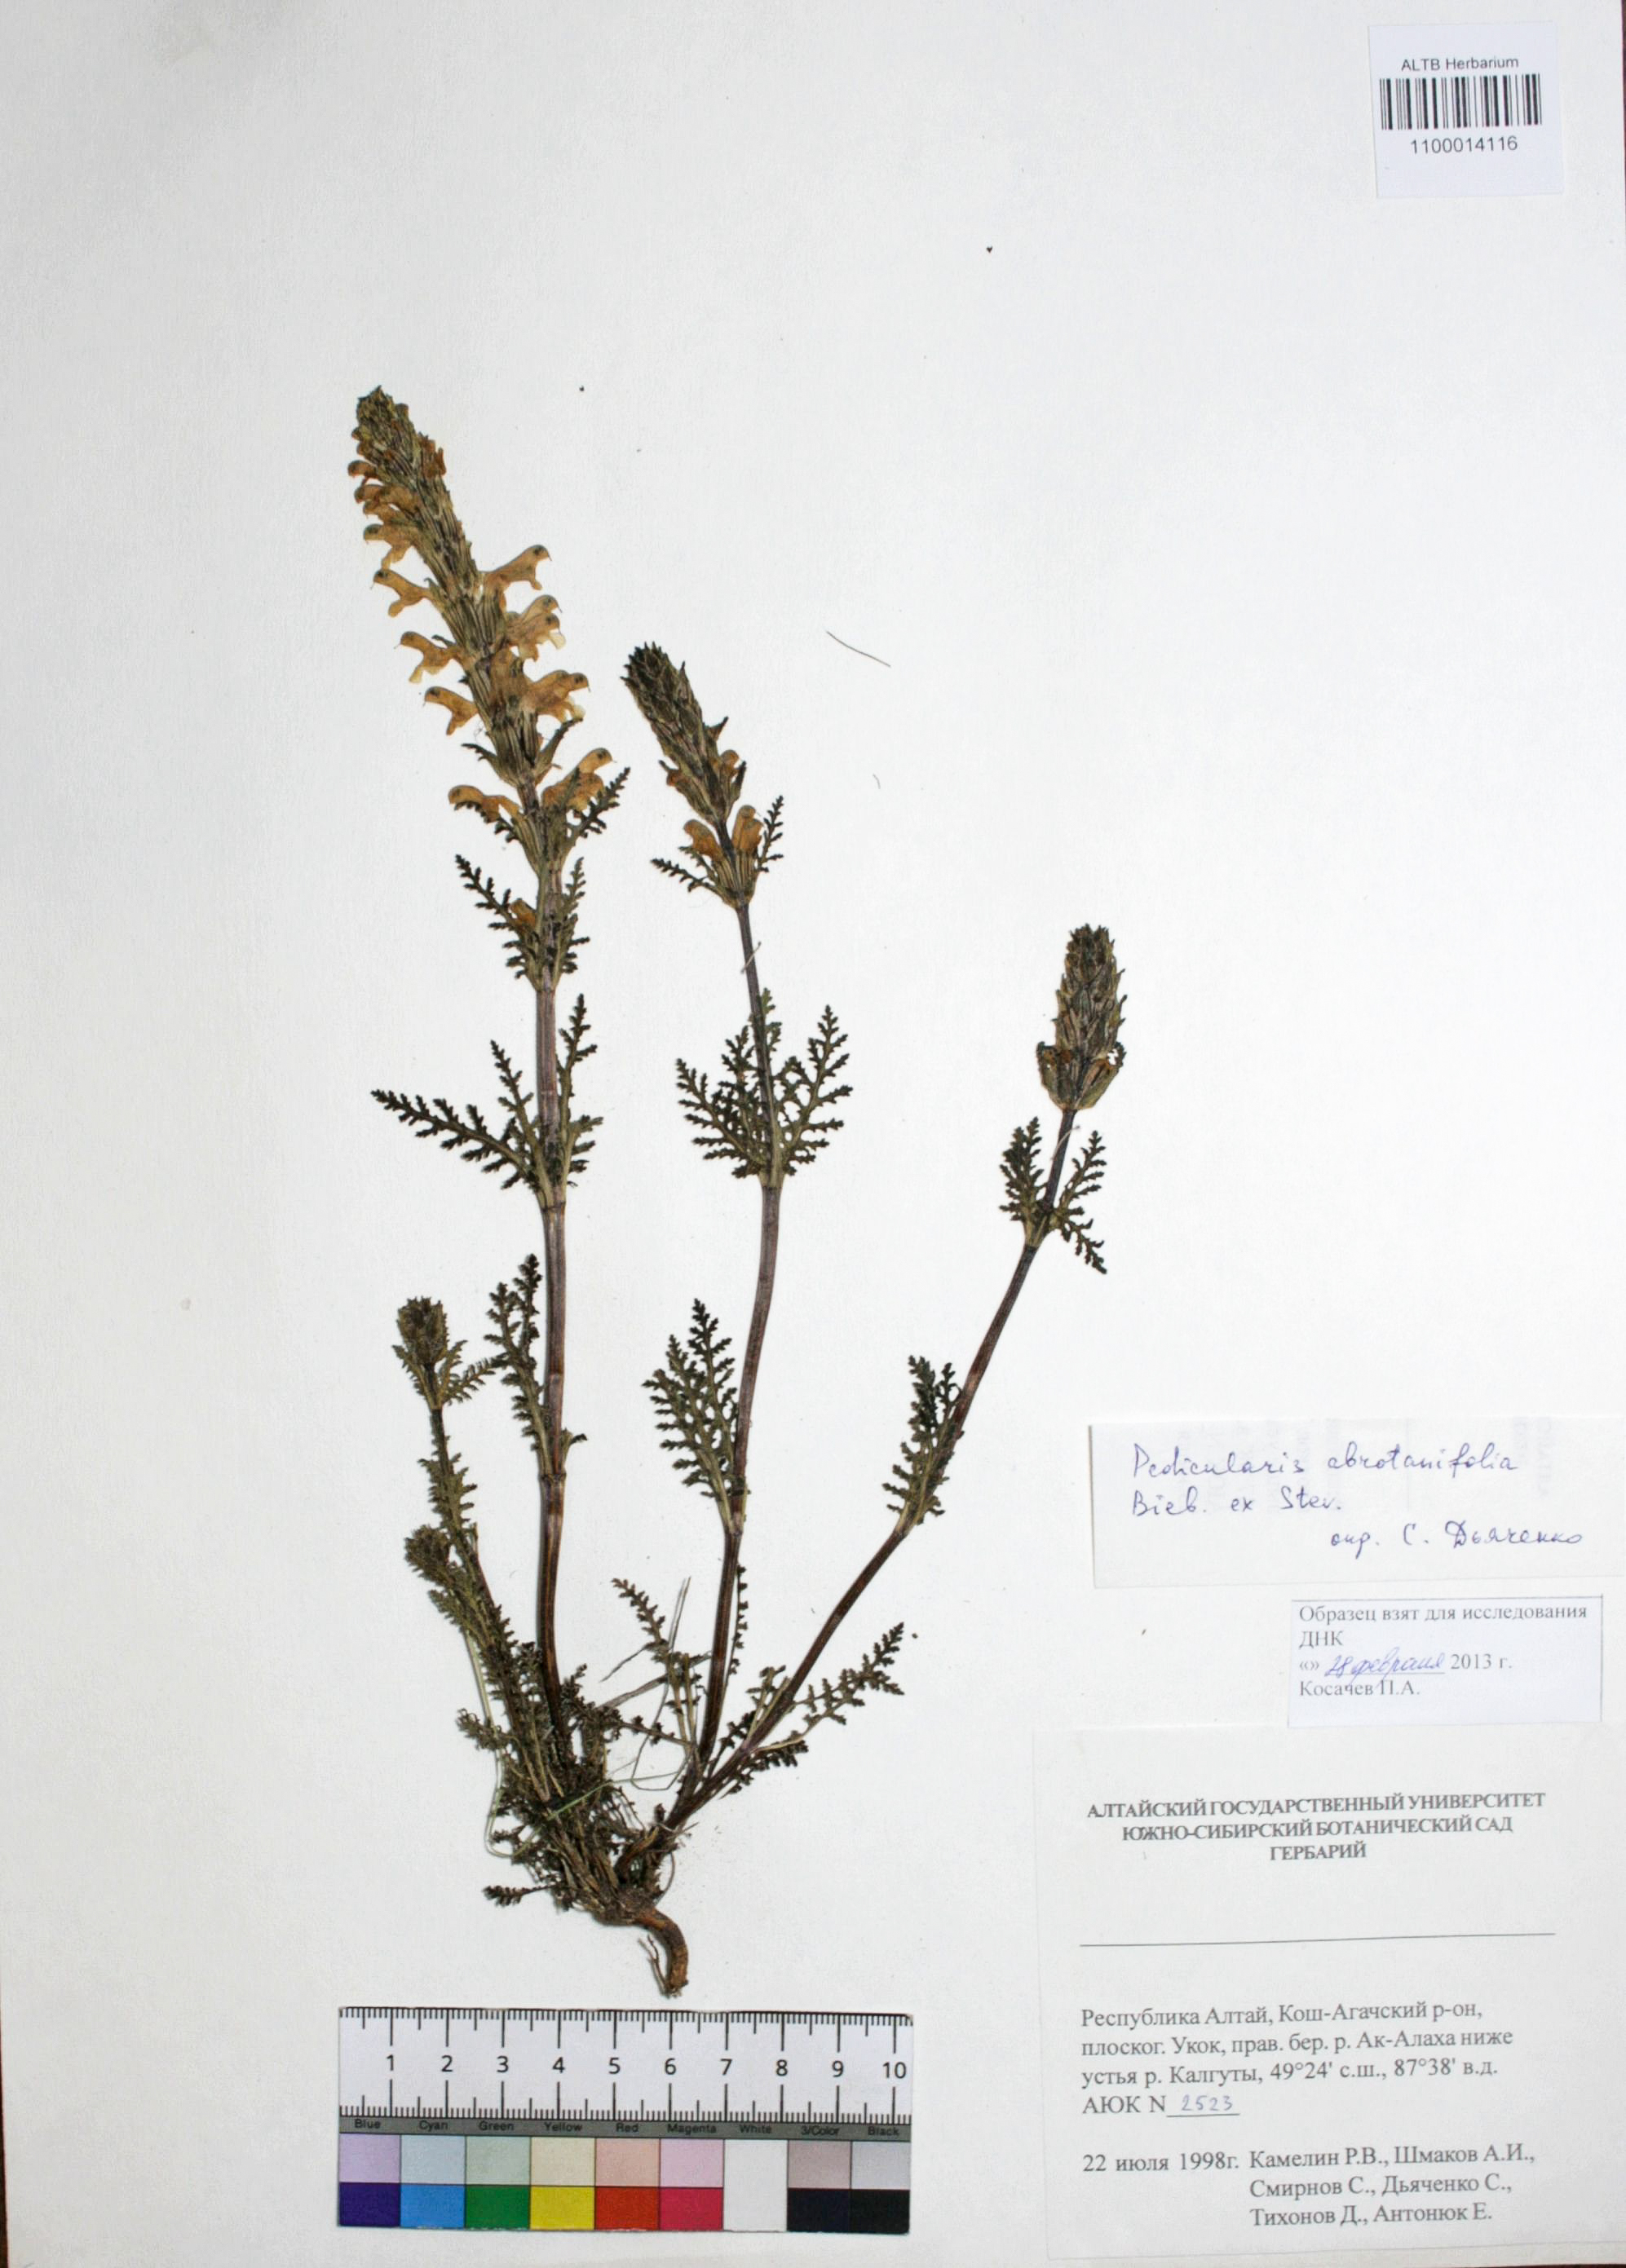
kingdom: Plantae
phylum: Tracheophyta
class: Magnoliopsida
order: Lamiales
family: Orobanchaceae
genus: Pedicularis
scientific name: Pedicularis abrotanifolia
